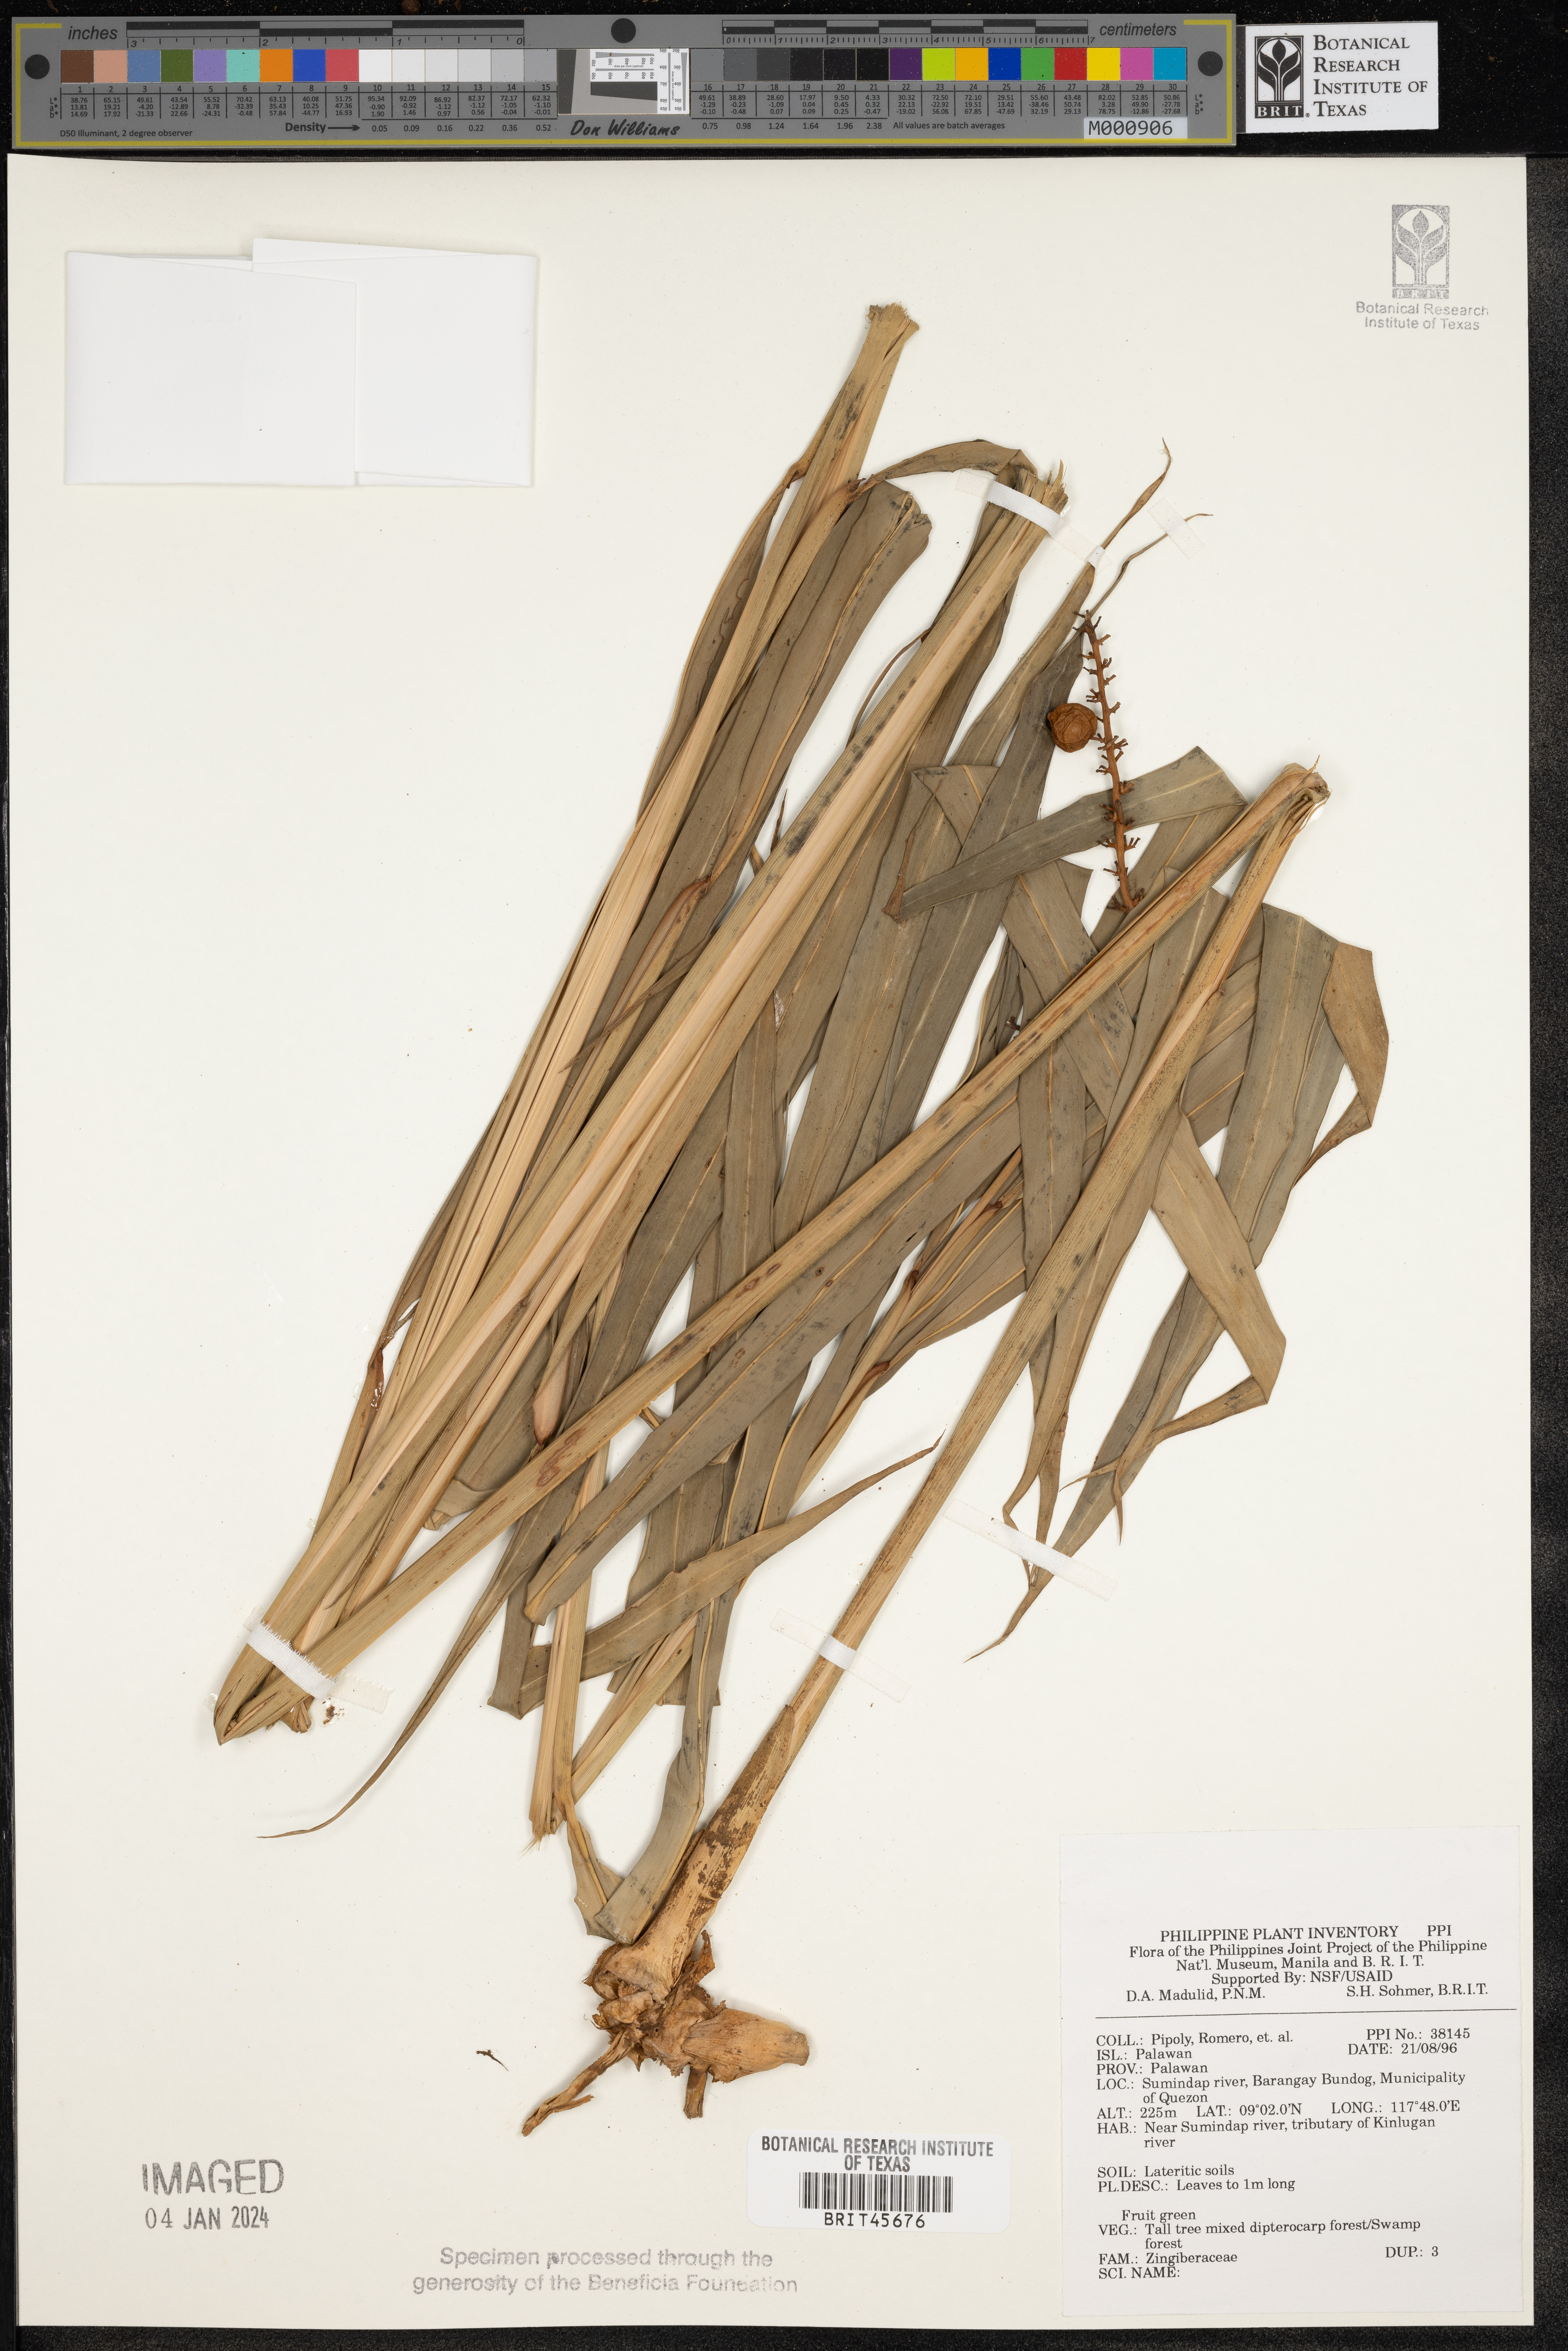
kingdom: Plantae
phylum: Tracheophyta
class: Liliopsida
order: Zingiberales
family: Zingiberaceae
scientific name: Zingiberaceae
